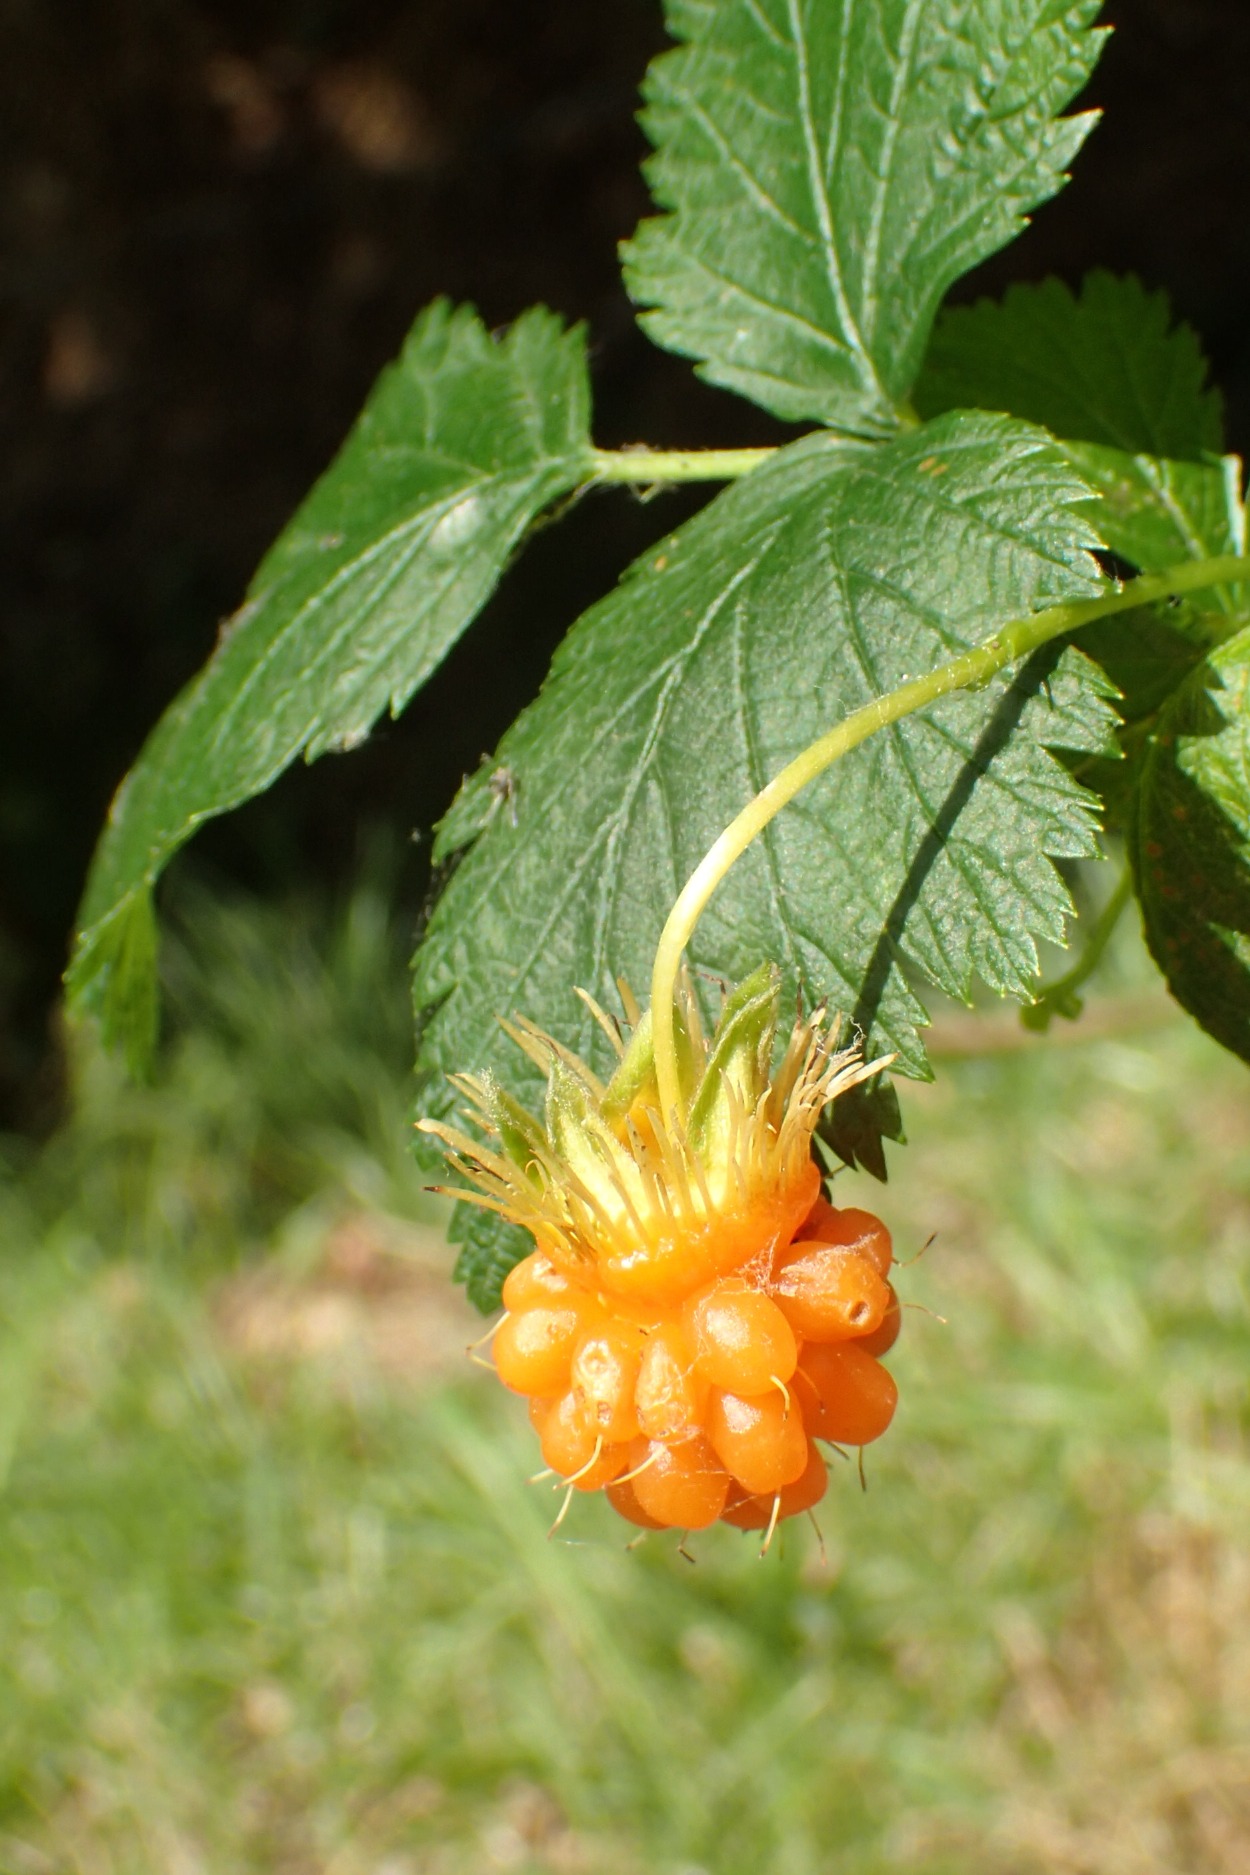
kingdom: Plantae
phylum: Tracheophyta
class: Magnoliopsida
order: Rosales
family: Rosaceae
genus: Rubus
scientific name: Rubus spectabilis
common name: Laksebær
